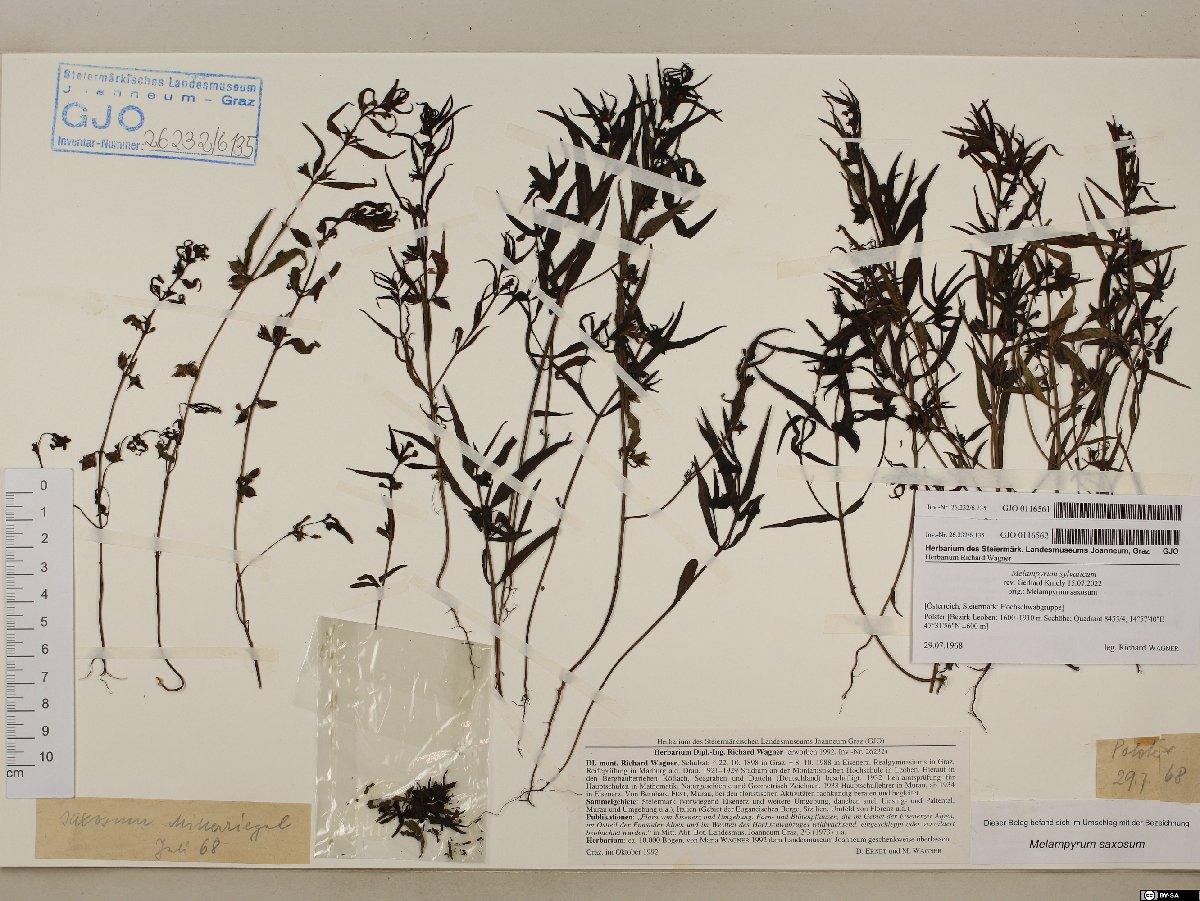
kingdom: Plantae
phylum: Tracheophyta
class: Magnoliopsida
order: Lamiales
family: Orobanchaceae
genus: Melampyrum
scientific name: Melampyrum sylvaticum
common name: Small cow-wheat
